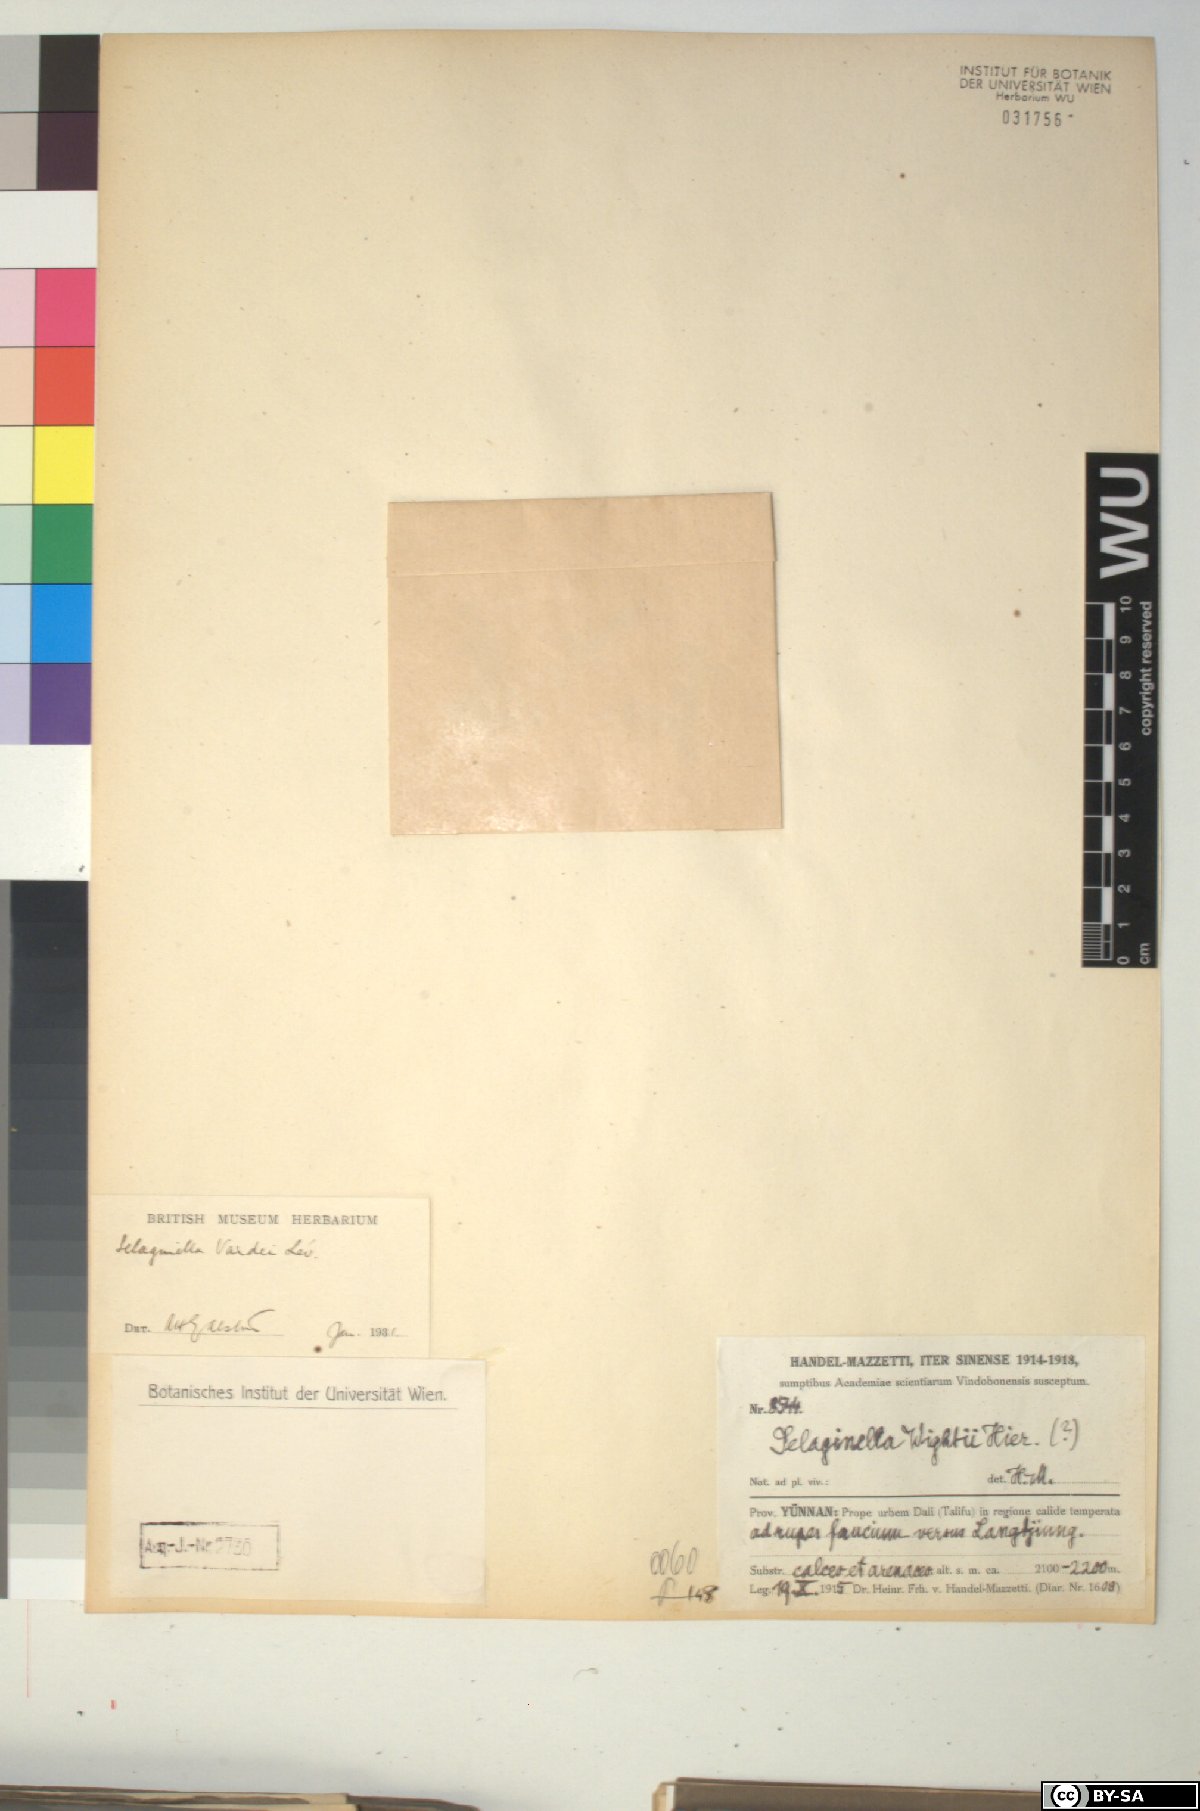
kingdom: Plantae
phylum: Tracheophyta
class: Lycopodiopsida
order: Selaginellales
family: Selaginellaceae
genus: Selaginella
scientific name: Selaginella vardei
